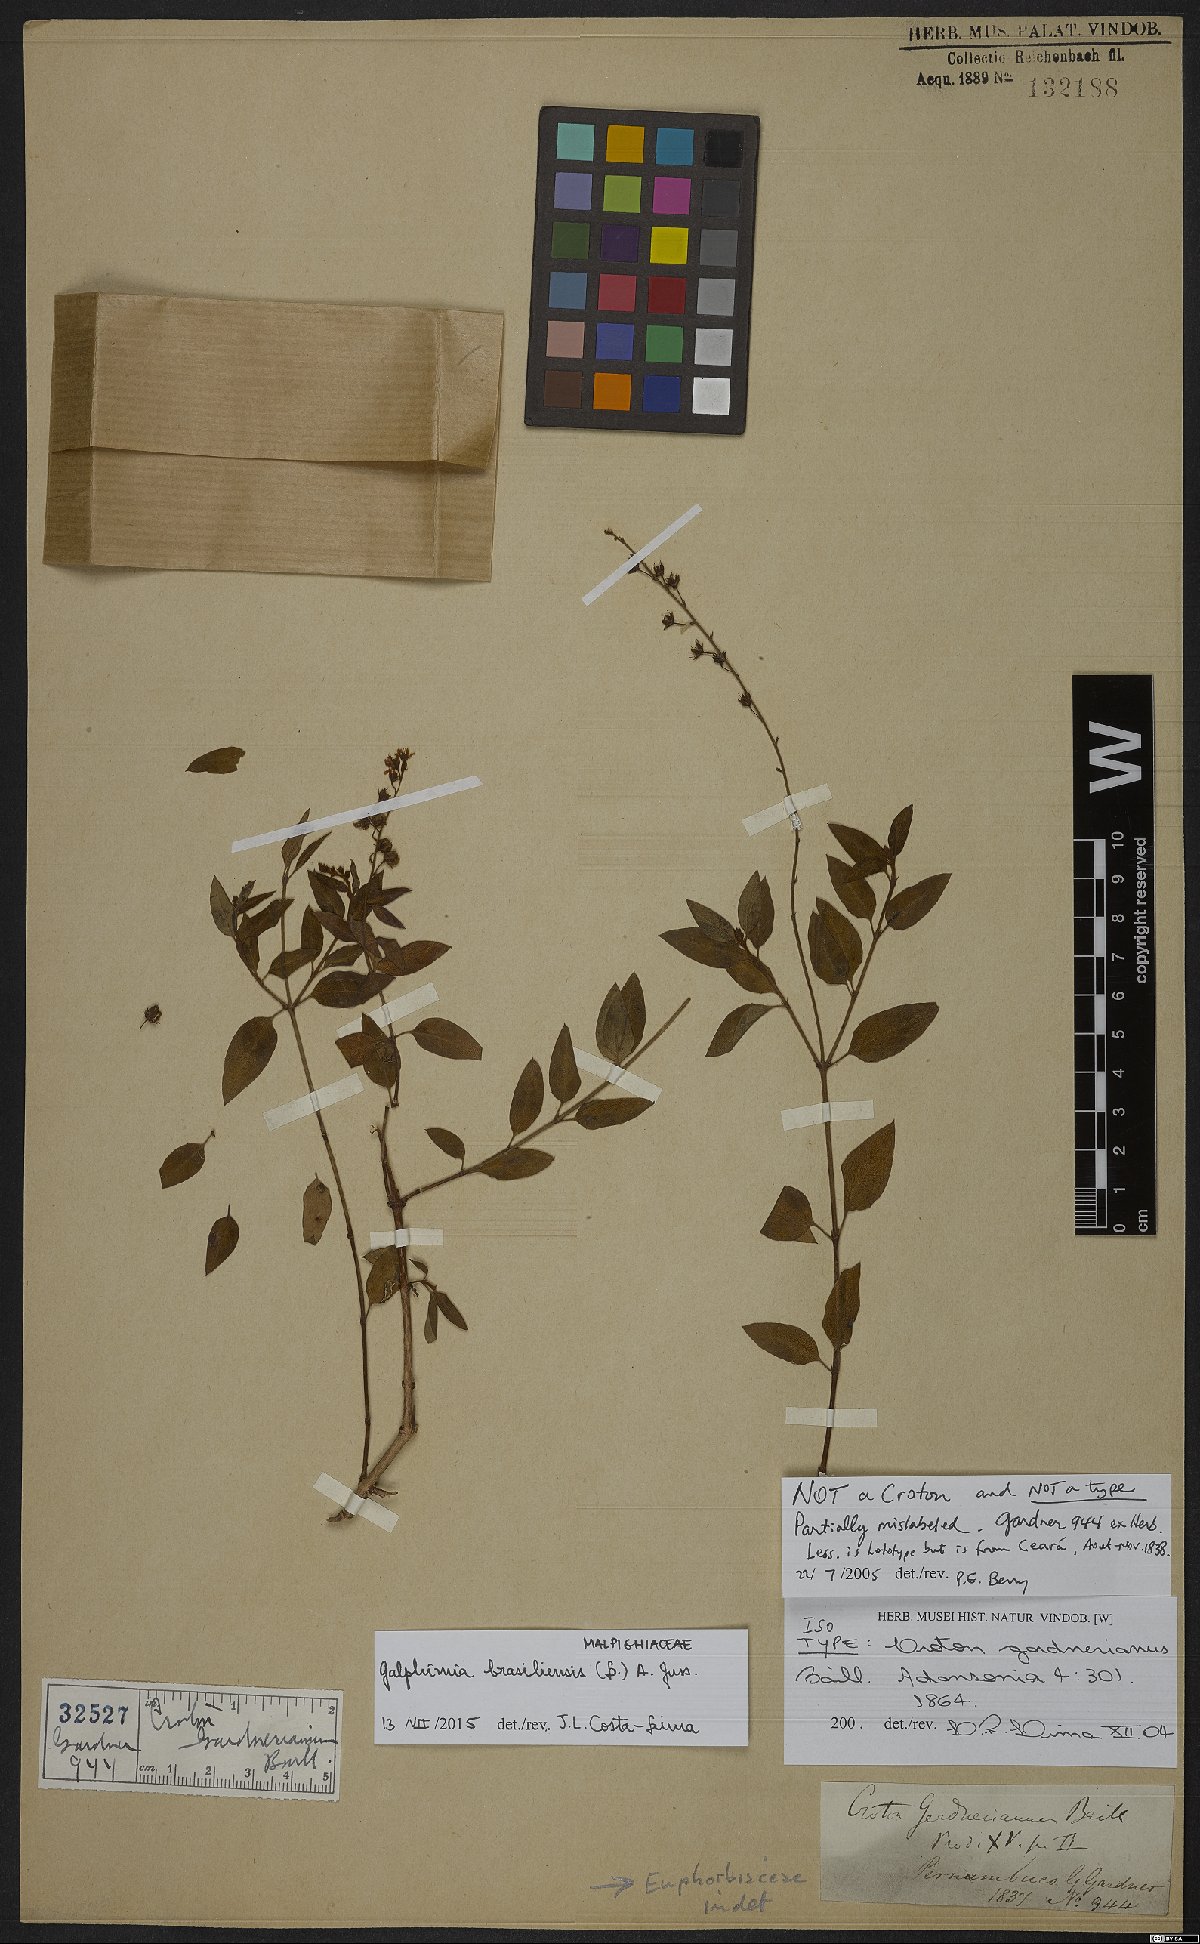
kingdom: Plantae
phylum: Tracheophyta
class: Magnoliopsida
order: Malpighiales
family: Euphorbiaceae
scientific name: Euphorbiaceae
